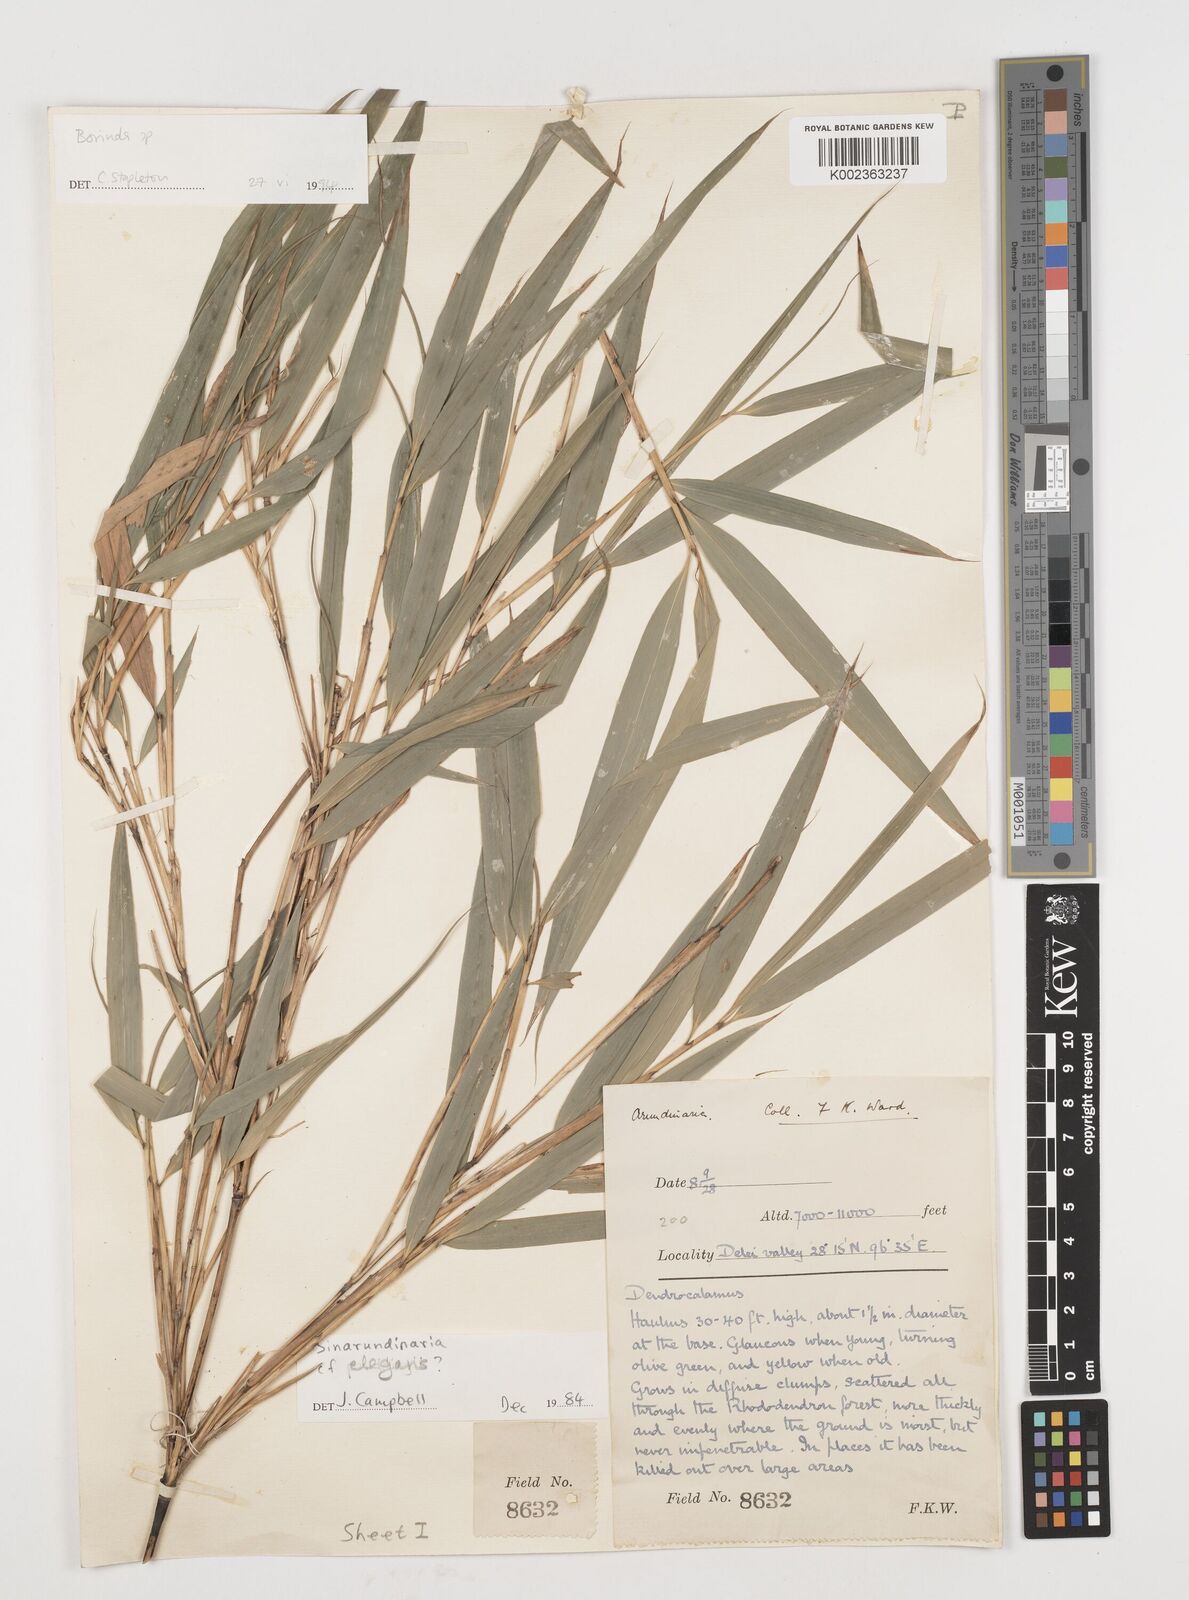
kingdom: Plantae
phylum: Tracheophyta
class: Liliopsida
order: Poales
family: Poaceae
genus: Fargesia
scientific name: Fargesia
